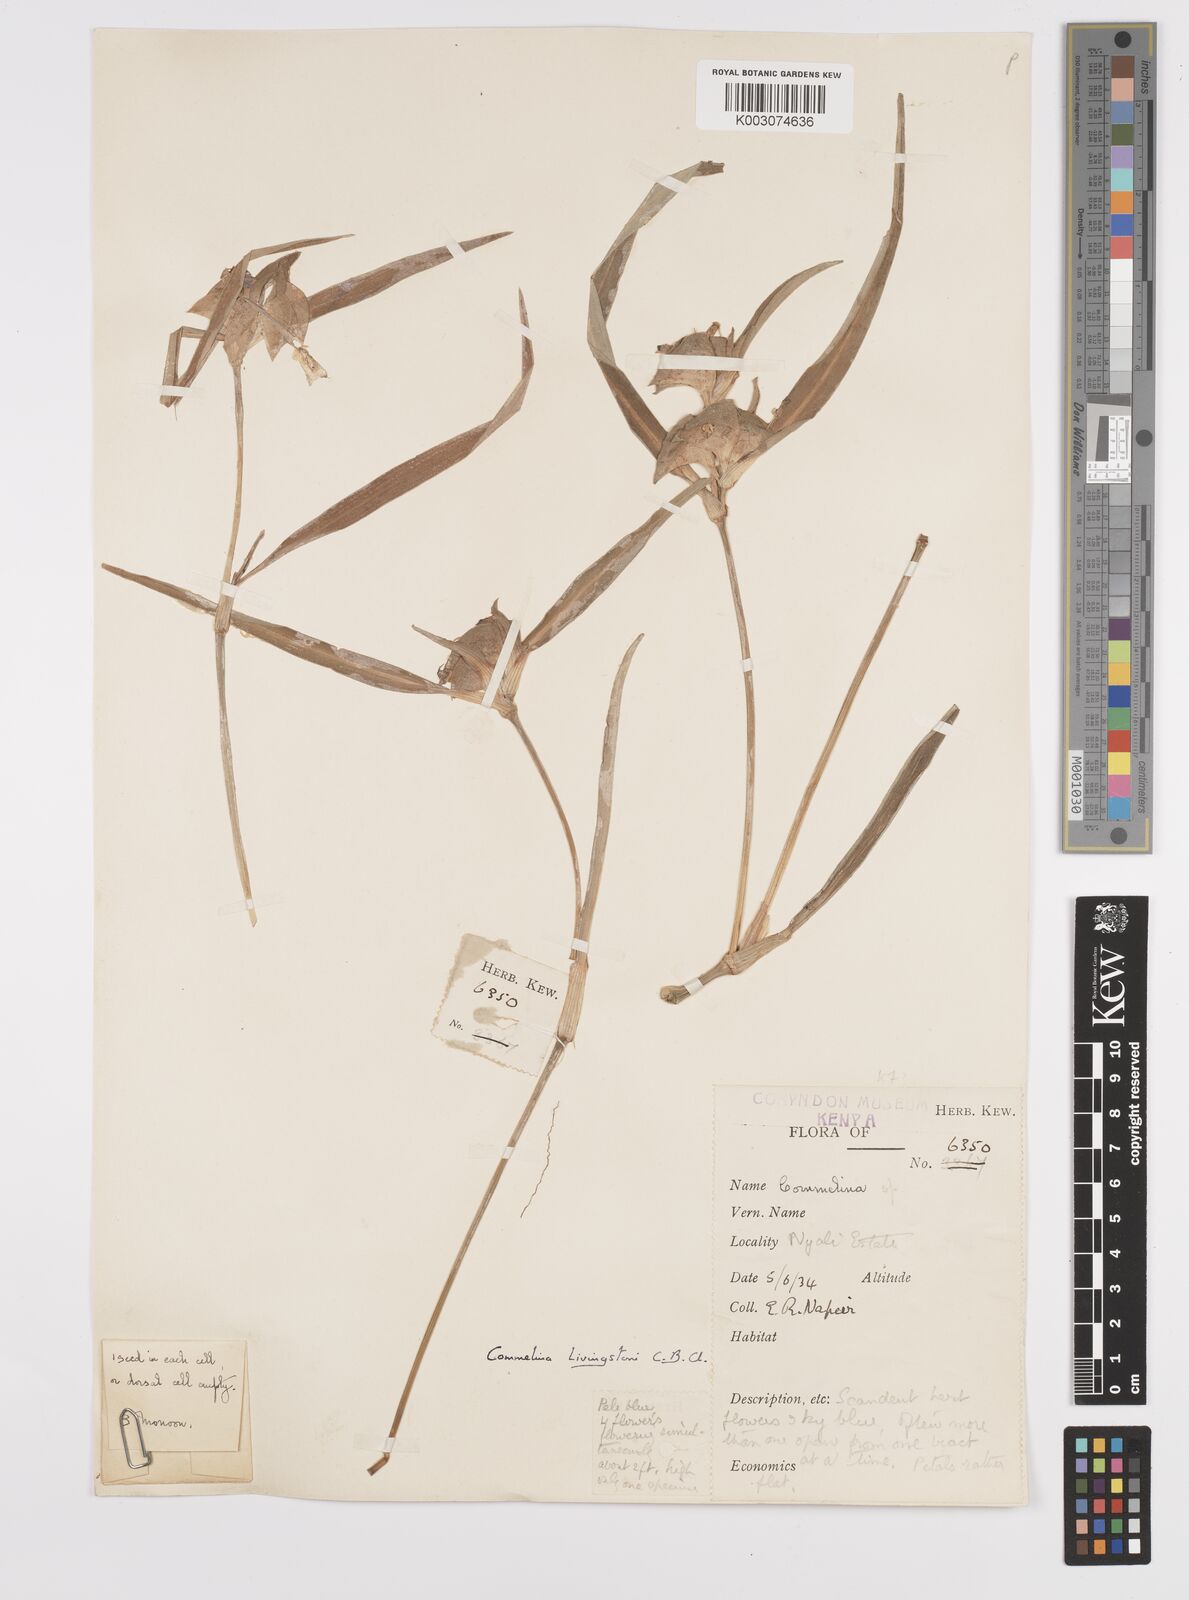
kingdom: Plantae
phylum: Tracheophyta
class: Liliopsida
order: Commelinales
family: Commelinaceae
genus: Commelina
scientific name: Commelina erecta
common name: Blousel blommetjie
